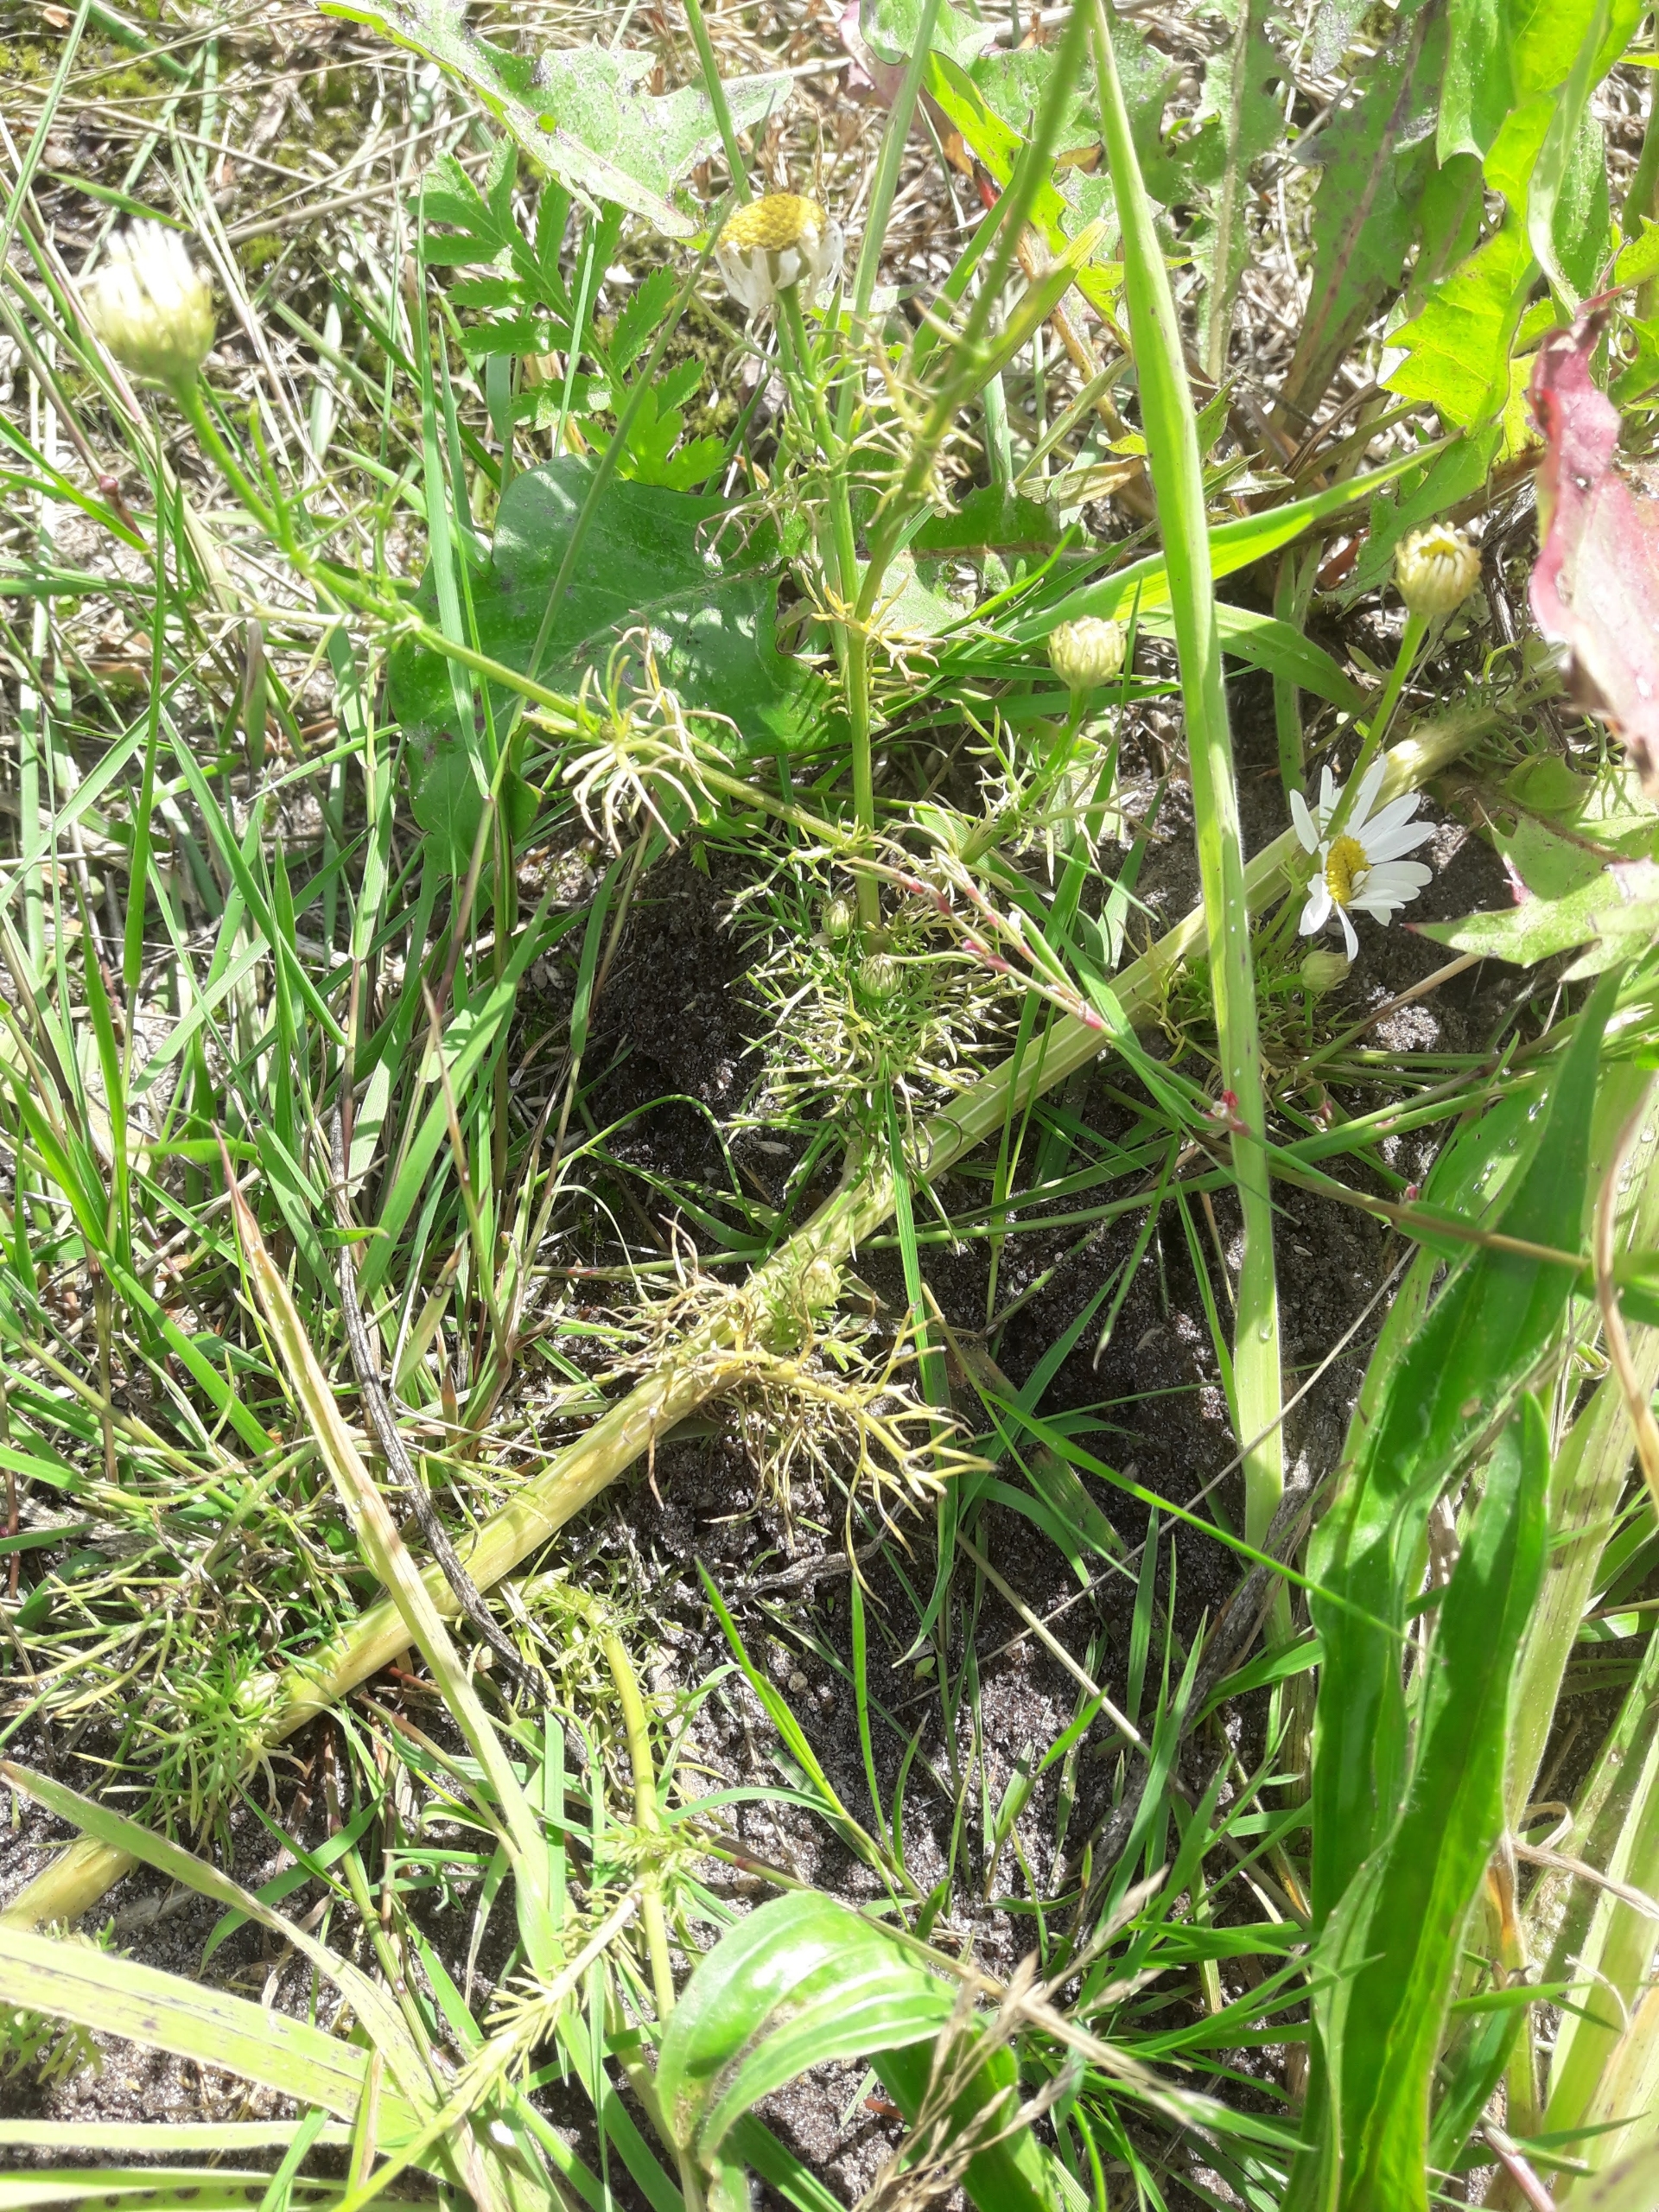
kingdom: Plantae
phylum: Tracheophyta
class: Magnoliopsida
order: Asterales
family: Asteraceae
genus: Tripleurospermum
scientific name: Tripleurospermum inodorum
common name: Lugtløs kamille
